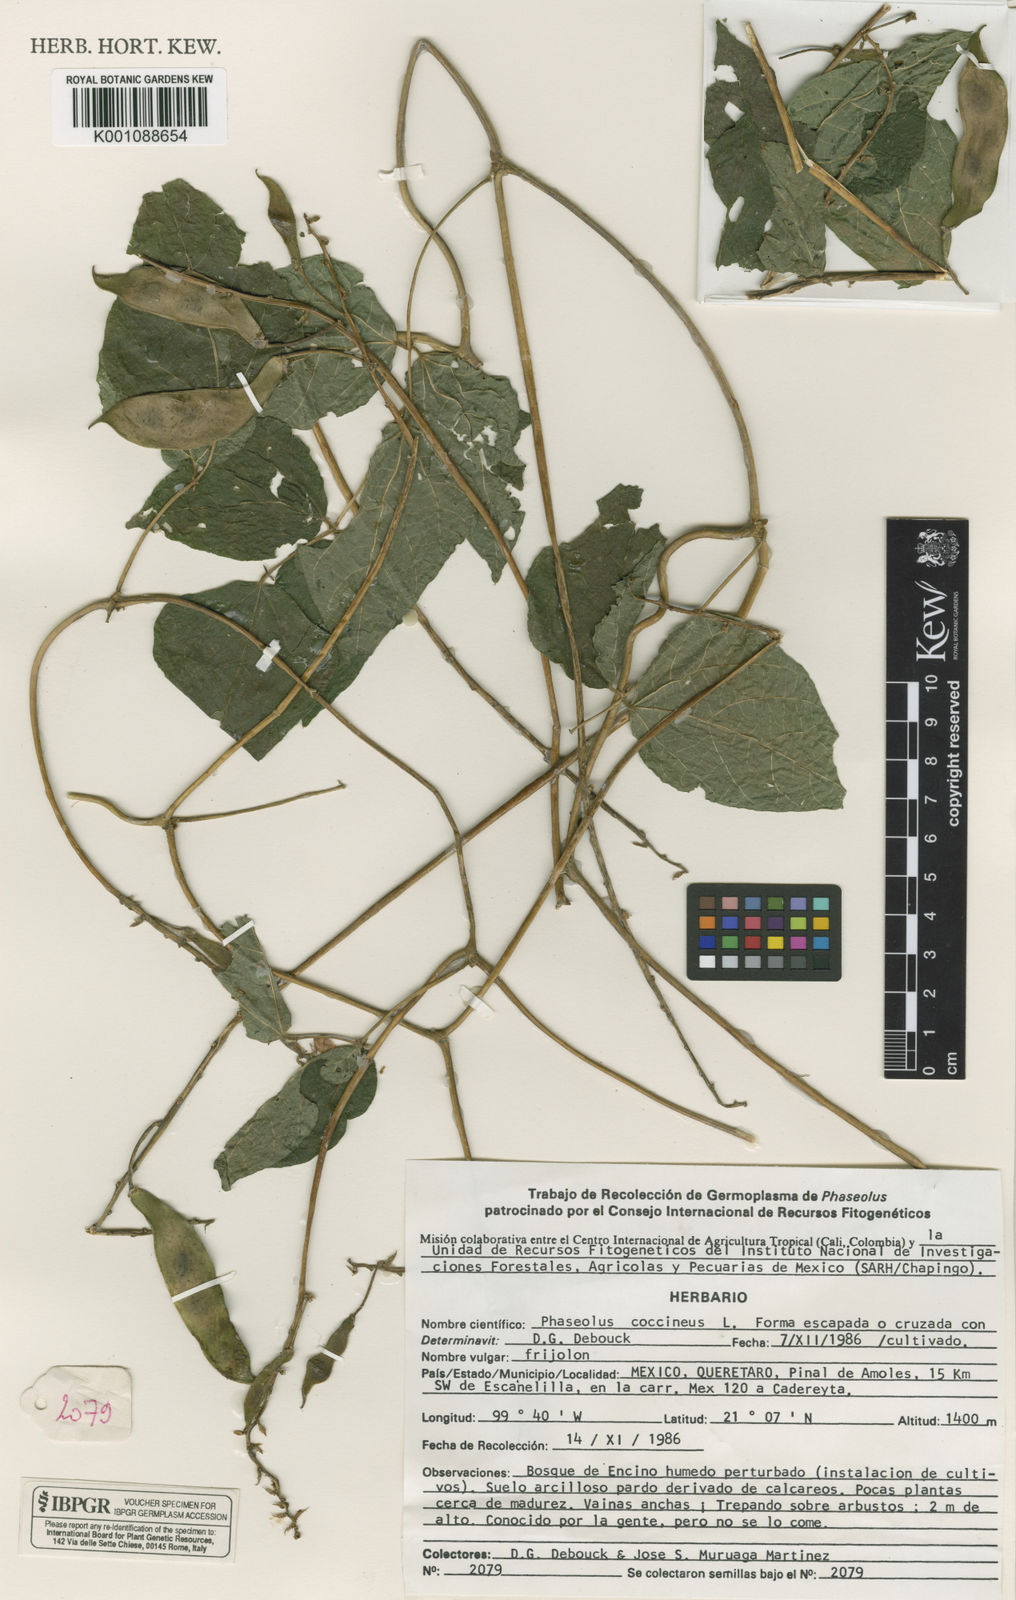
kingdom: Plantae
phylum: Tracheophyta
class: Magnoliopsida
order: Fabales
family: Fabaceae
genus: Phaseolus
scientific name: Phaseolus coccineus
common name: Runner bean
